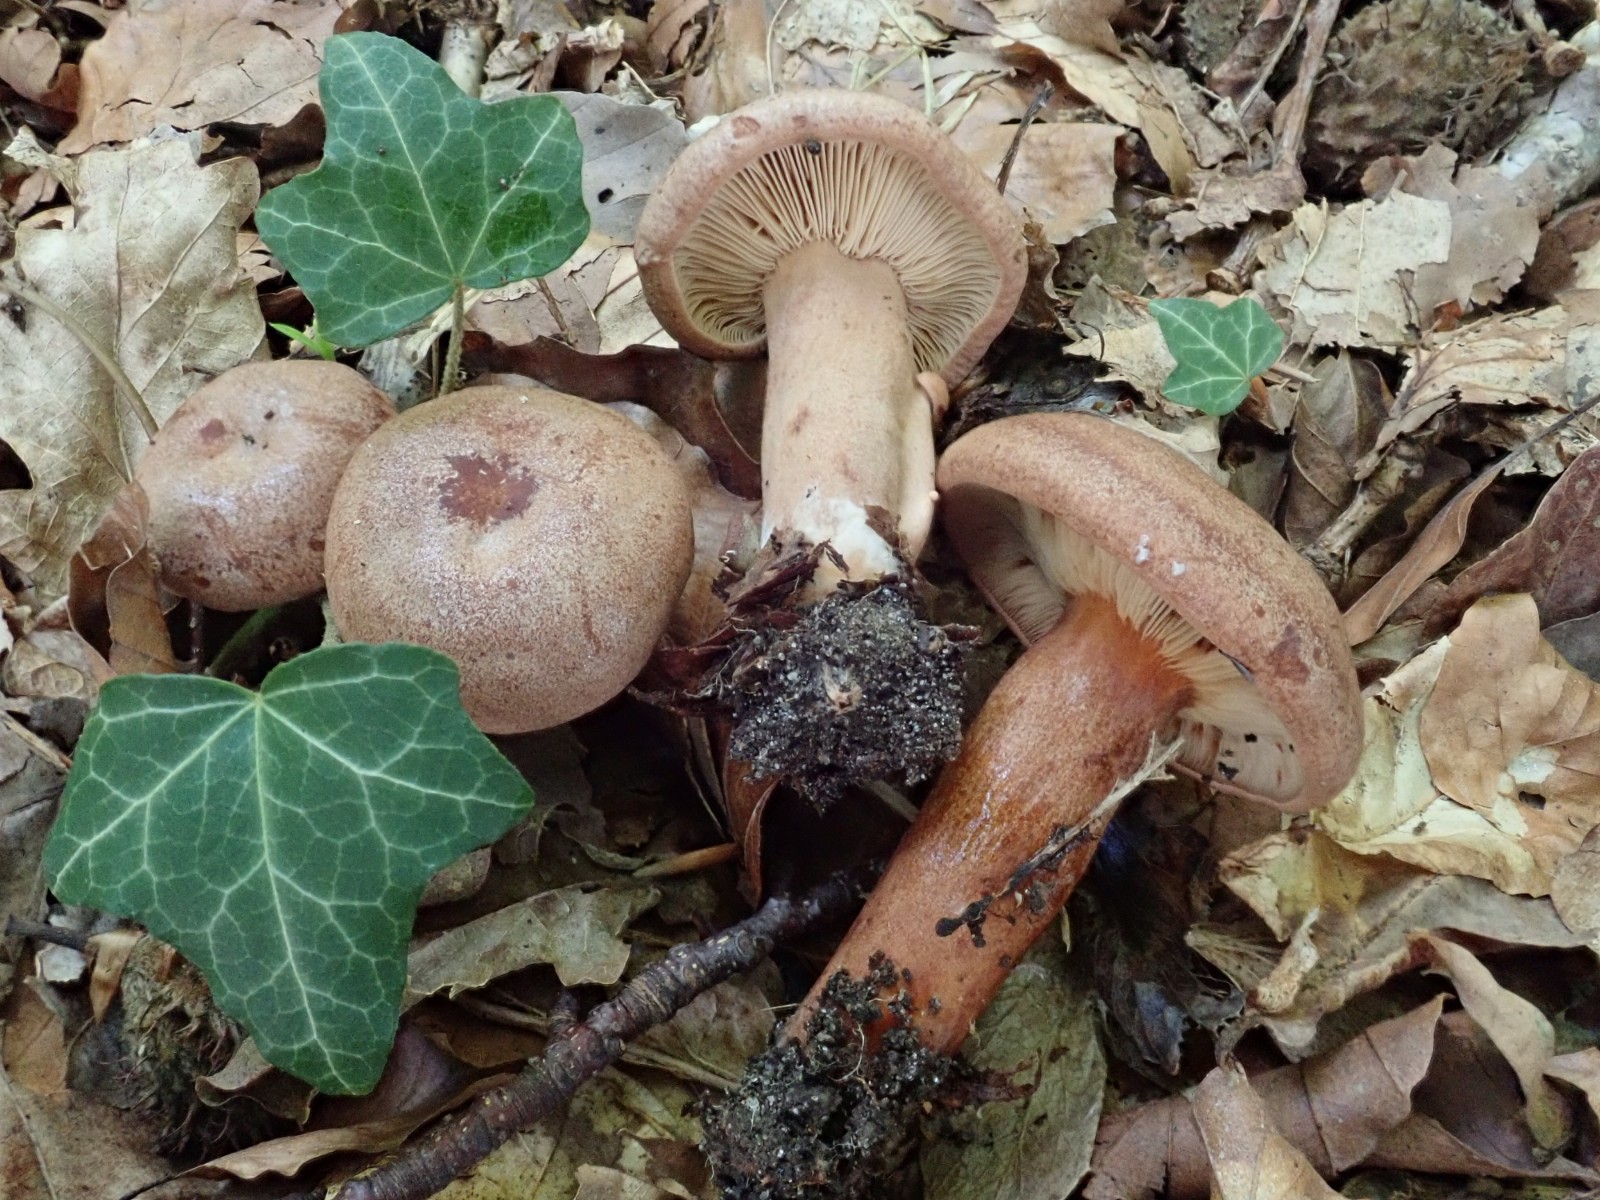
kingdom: Fungi
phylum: Basidiomycota
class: Agaricomycetes
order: Russulales
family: Russulaceae
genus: Lactarius
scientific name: Lactarius quietus
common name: ege-mælkehat
